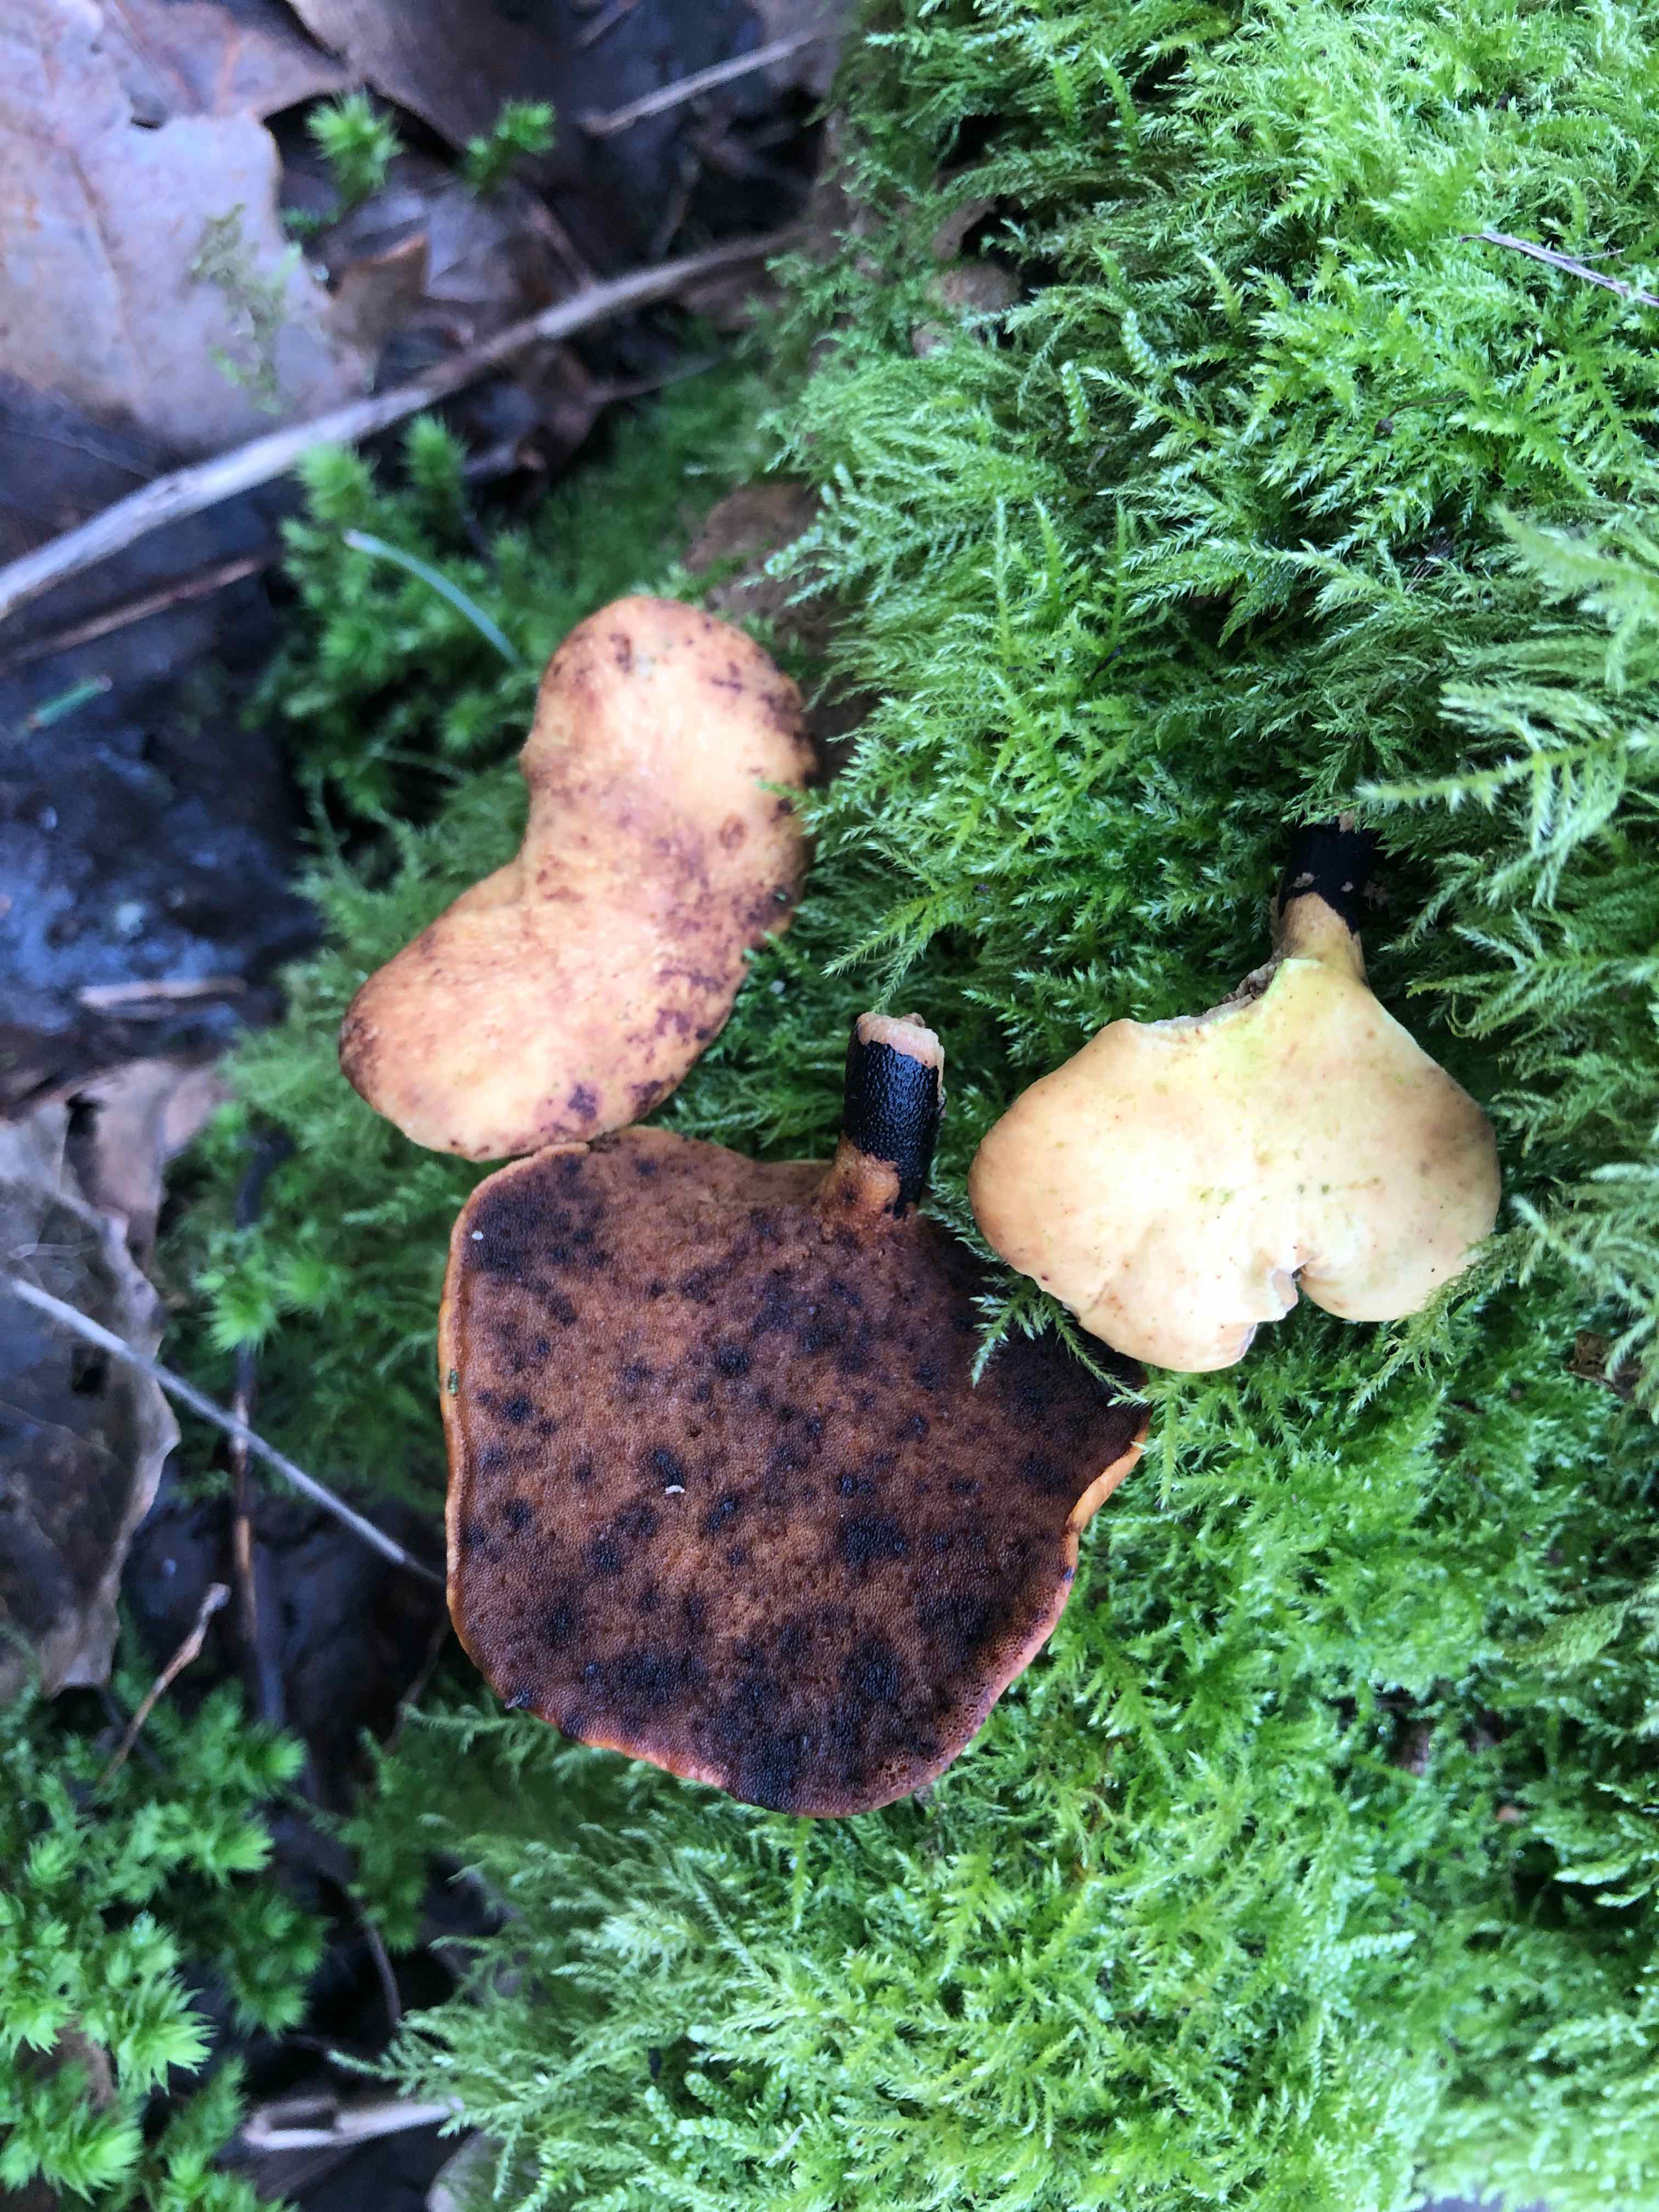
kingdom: Fungi
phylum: Basidiomycota
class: Agaricomycetes
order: Polyporales
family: Polyporaceae
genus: Cerioporus
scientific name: Cerioporus varius
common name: foranderlig stilkporesvamp
